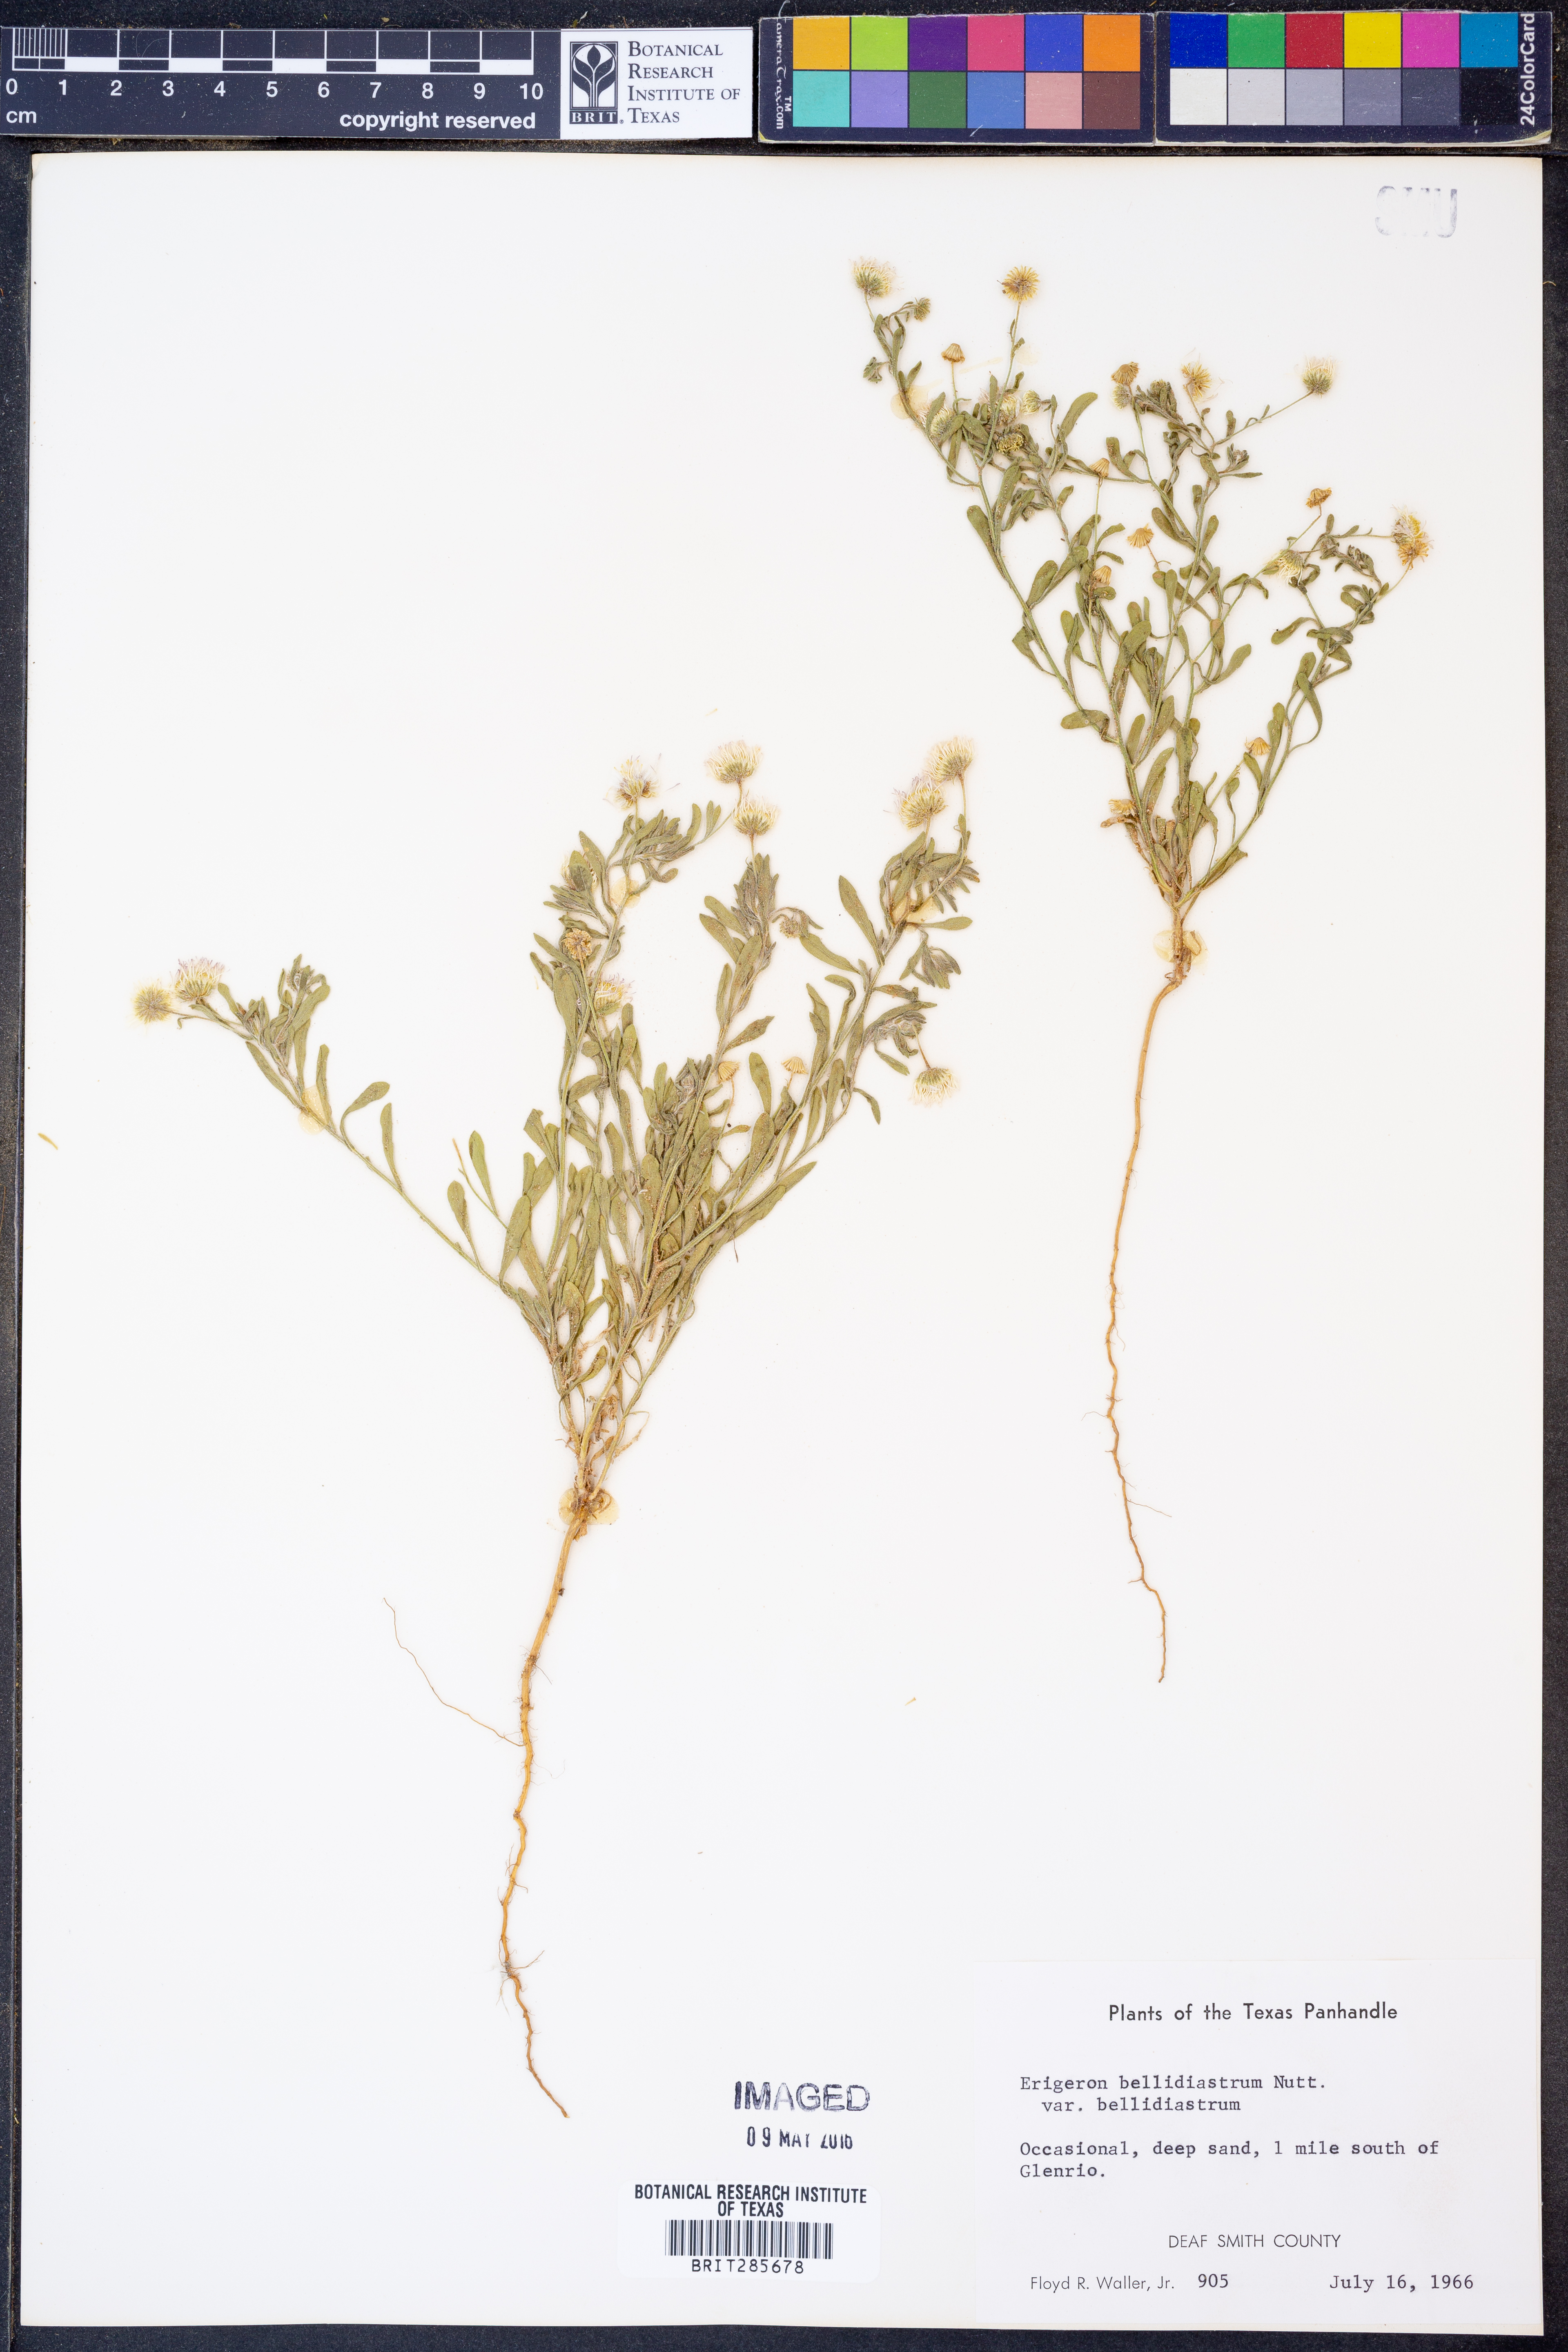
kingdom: Plantae
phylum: Tracheophyta
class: Magnoliopsida
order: Asterales
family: Asteraceae
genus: Erigeron
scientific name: Erigeron bellidiastrum
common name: Sand fleabane
